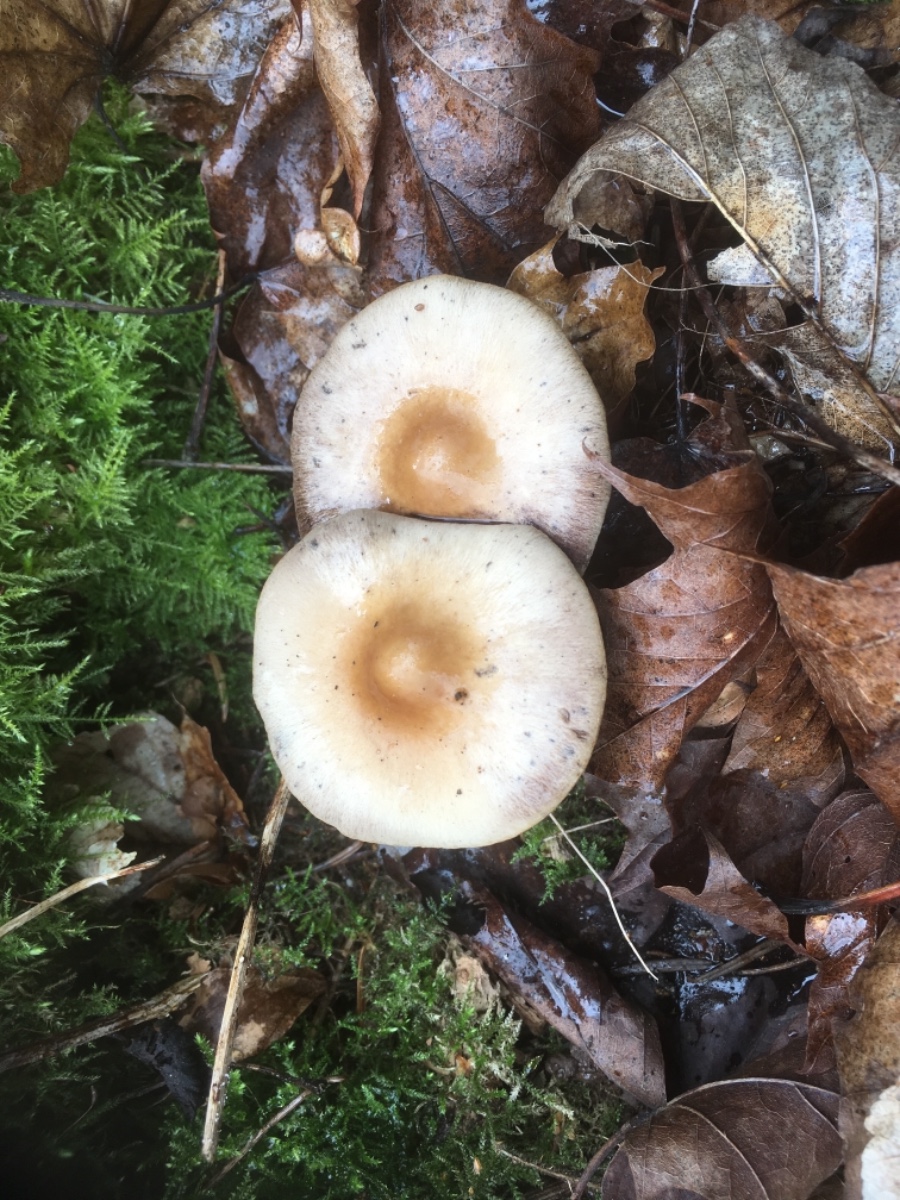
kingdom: Fungi
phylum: Basidiomycota
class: Agaricomycetes
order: Agaricales
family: Psathyrellaceae
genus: Psathyrella
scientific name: Psathyrella
